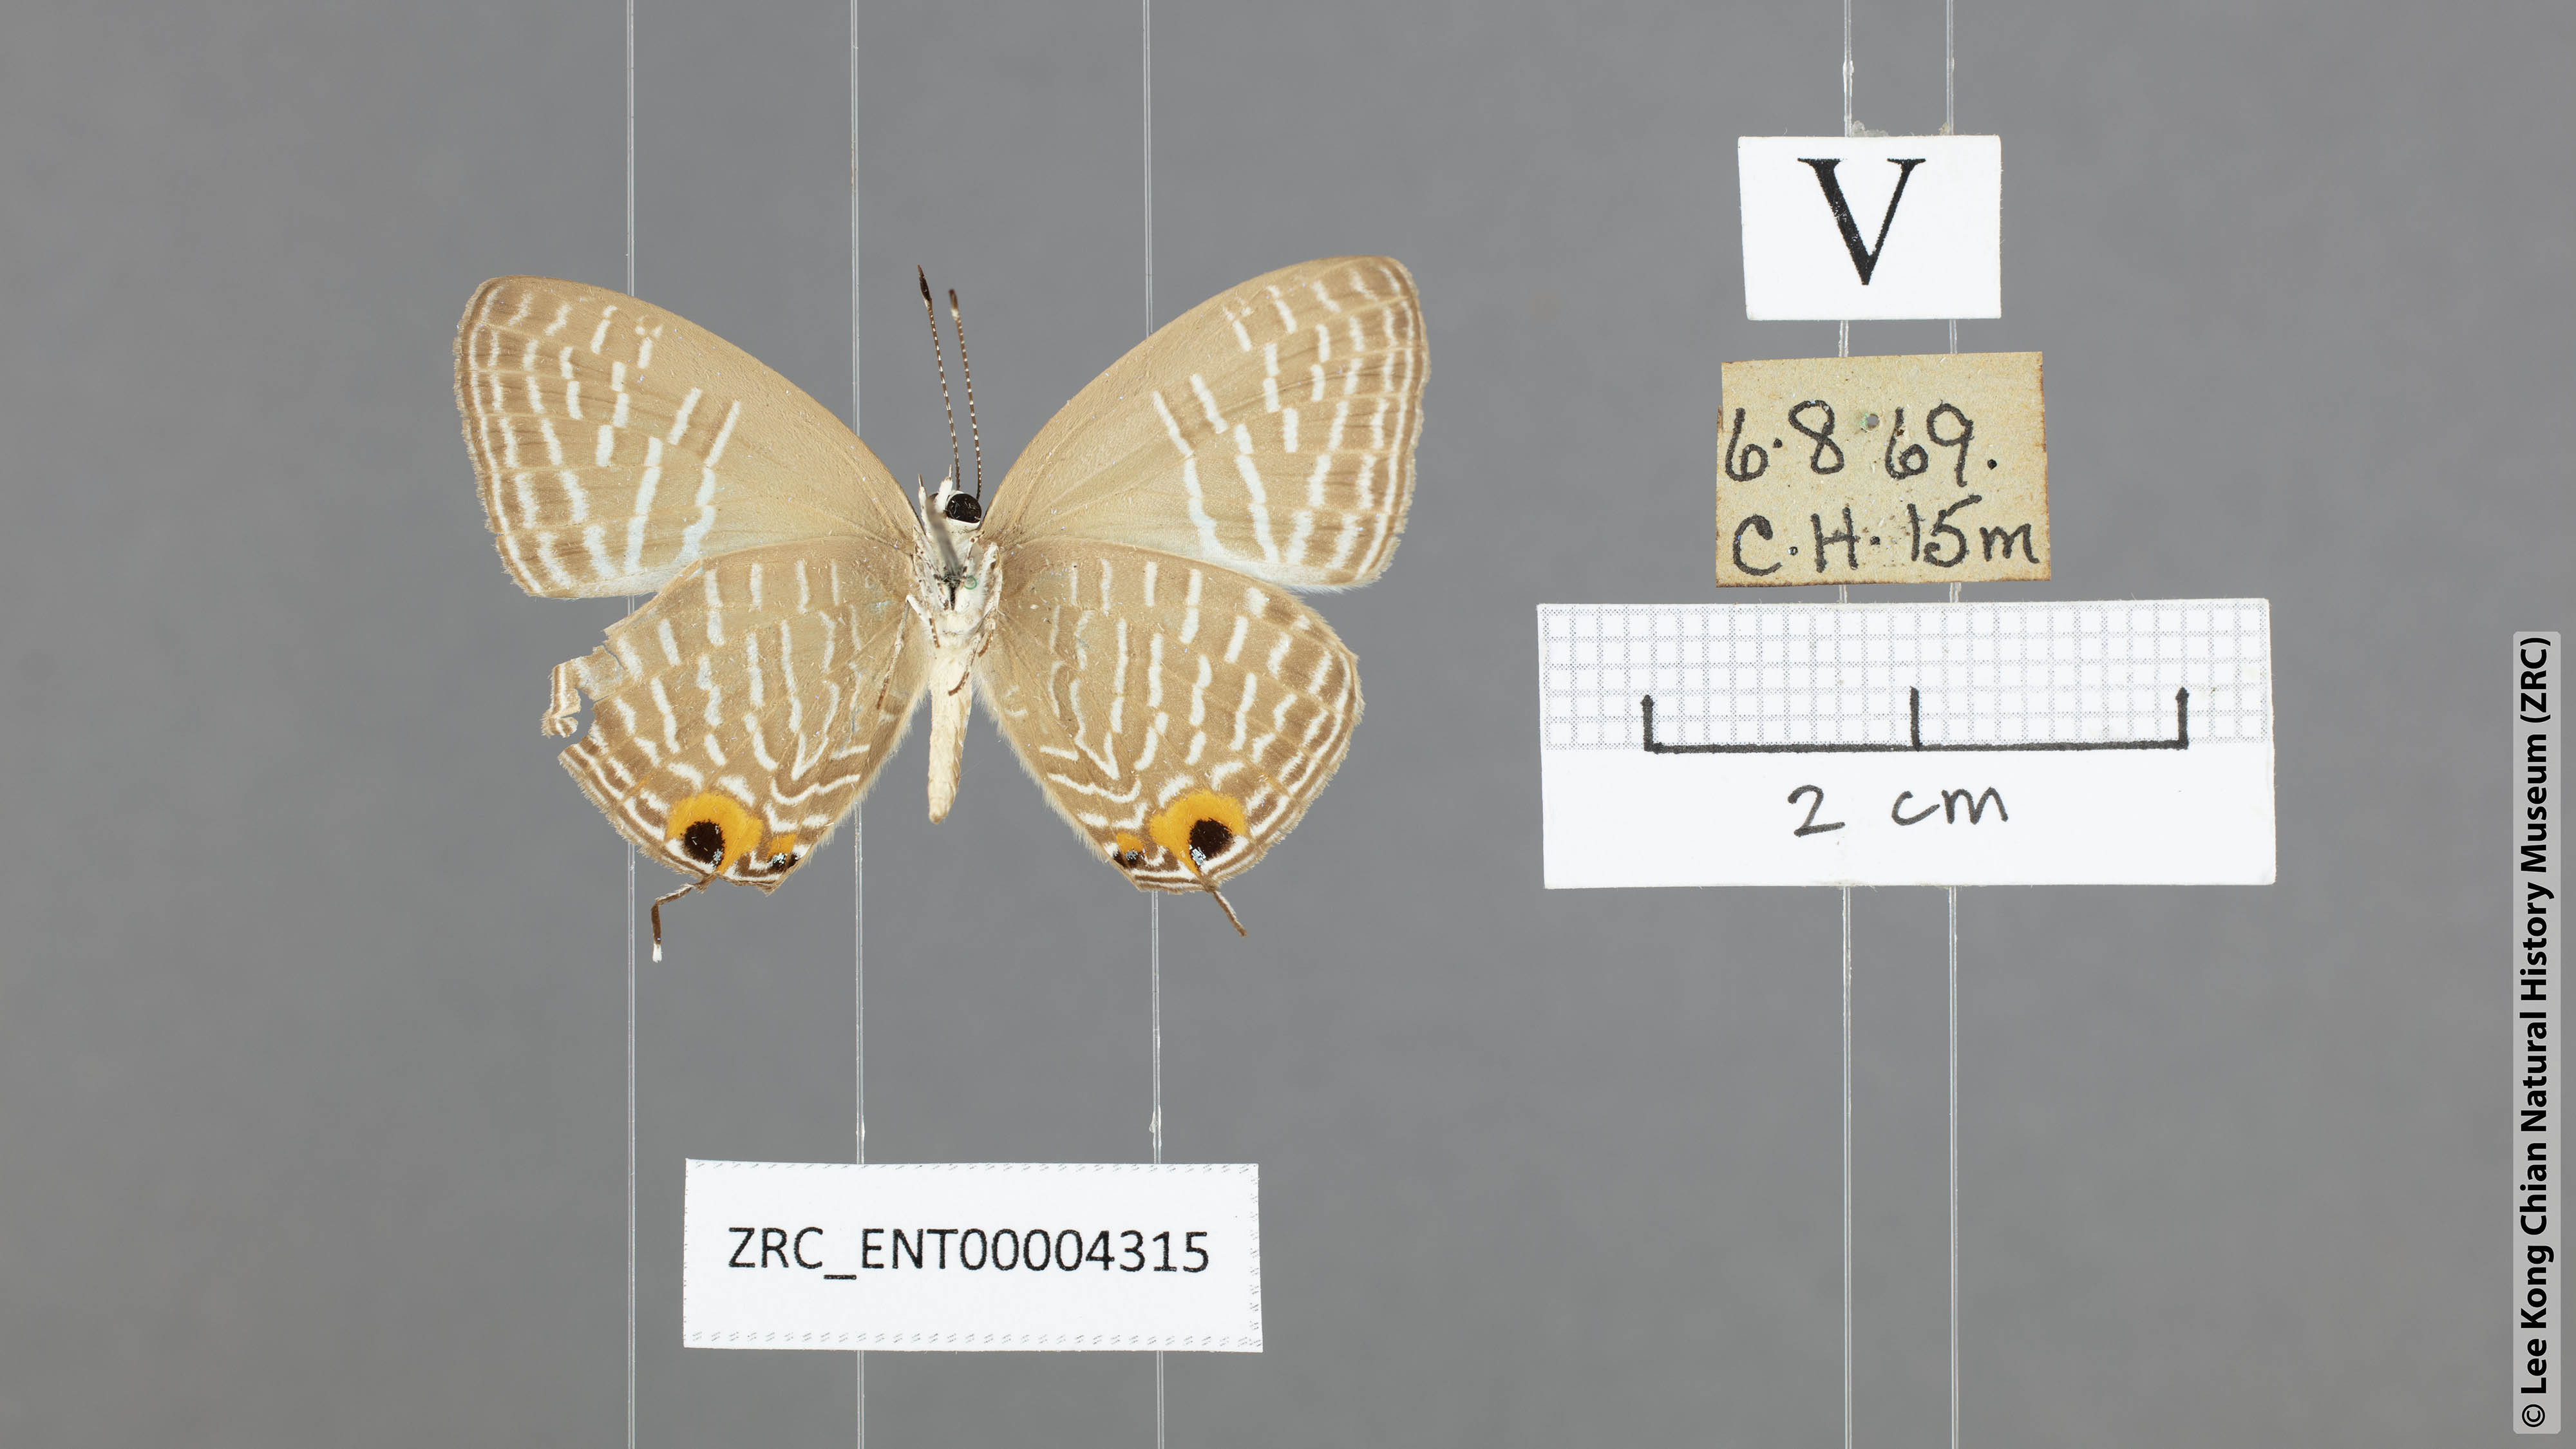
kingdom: Animalia
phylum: Arthropoda
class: Insecta
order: Lepidoptera
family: Lycaenidae
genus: Jamides
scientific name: Jamides alecto
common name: Metallic cerulean
